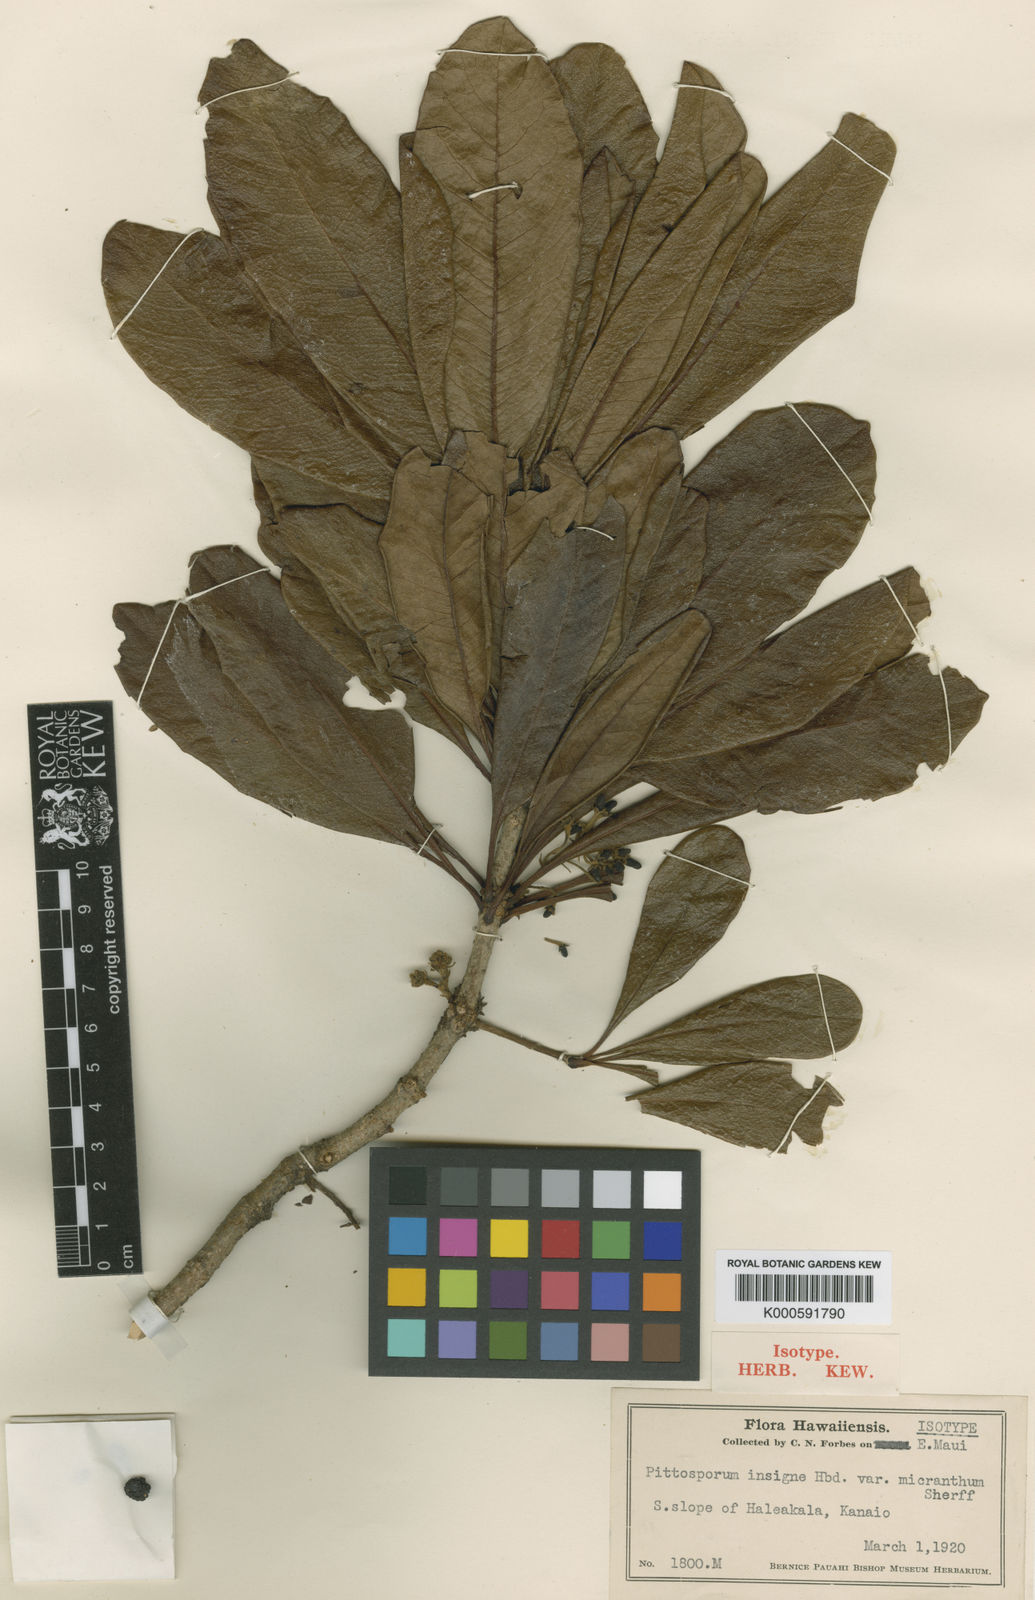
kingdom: Plantae
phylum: Tracheophyta
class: Magnoliopsida
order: Apiales
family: Pittosporaceae
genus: Pittosporum
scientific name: Pittosporum glabrum
